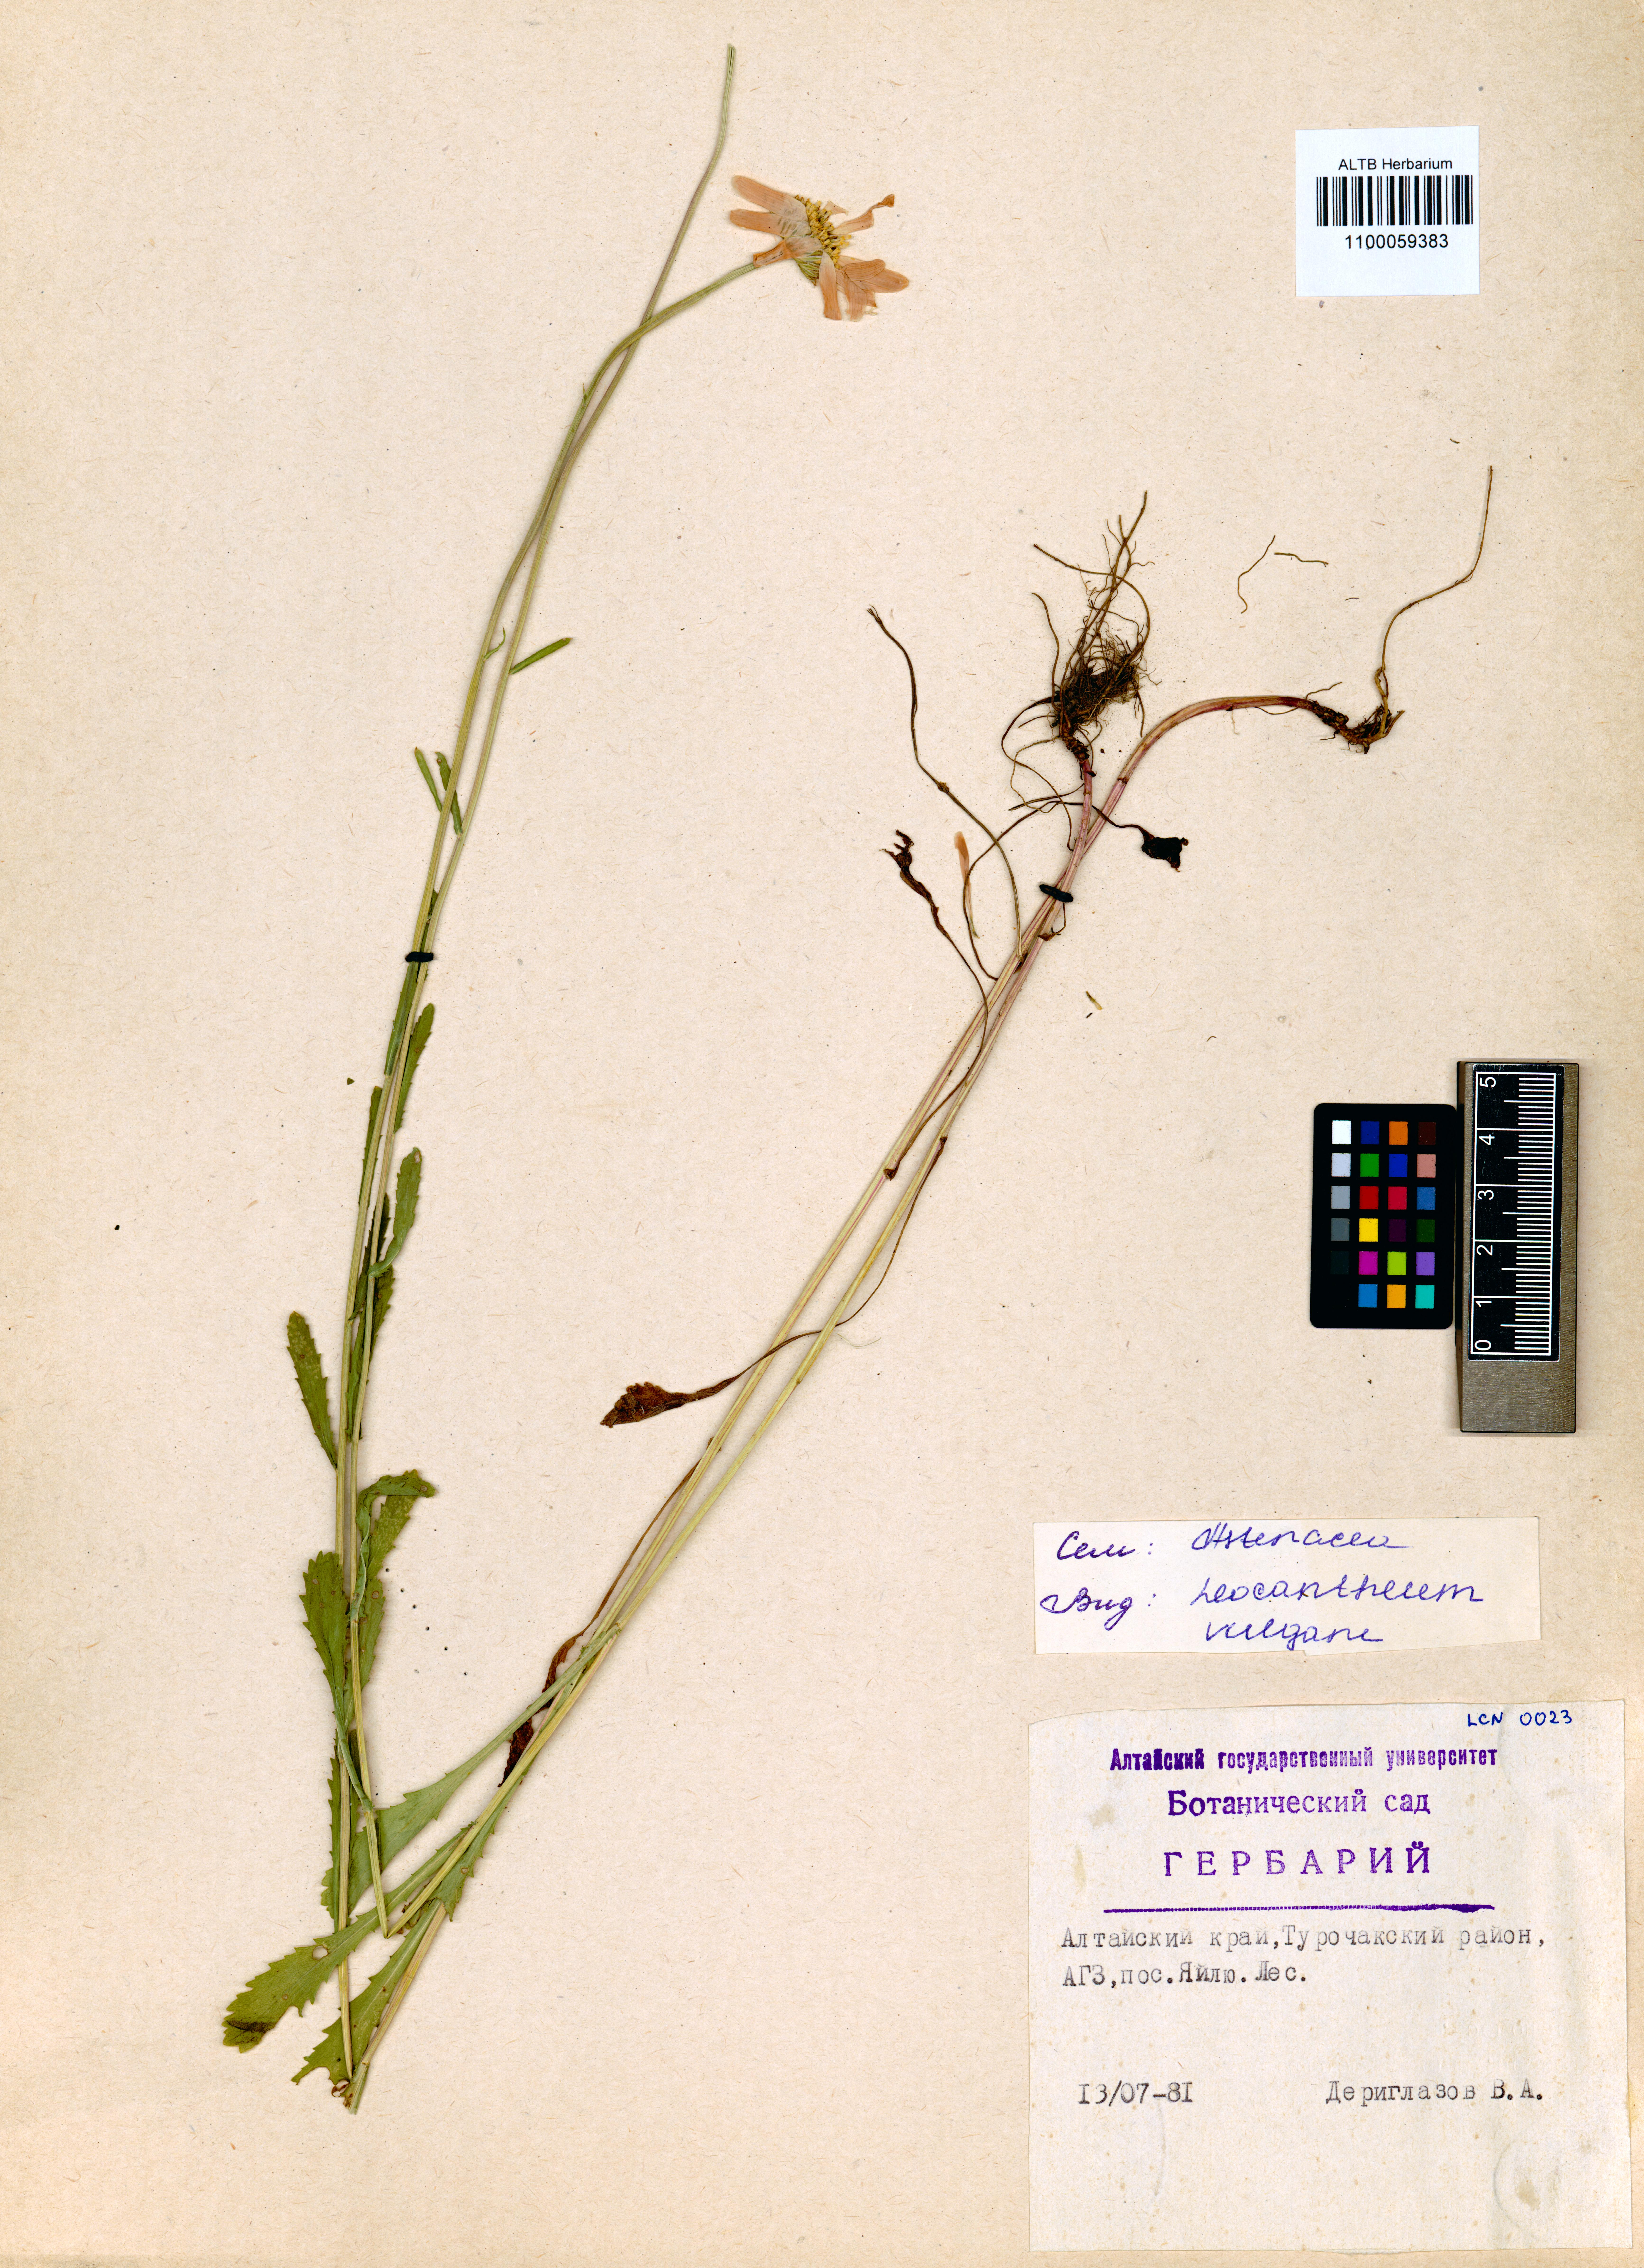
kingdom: Plantae
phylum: Tracheophyta
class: Magnoliopsida
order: Asterales
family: Asteraceae
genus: Leucanthemum
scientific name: Leucanthemum vulgare
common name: Oxeye daisy
